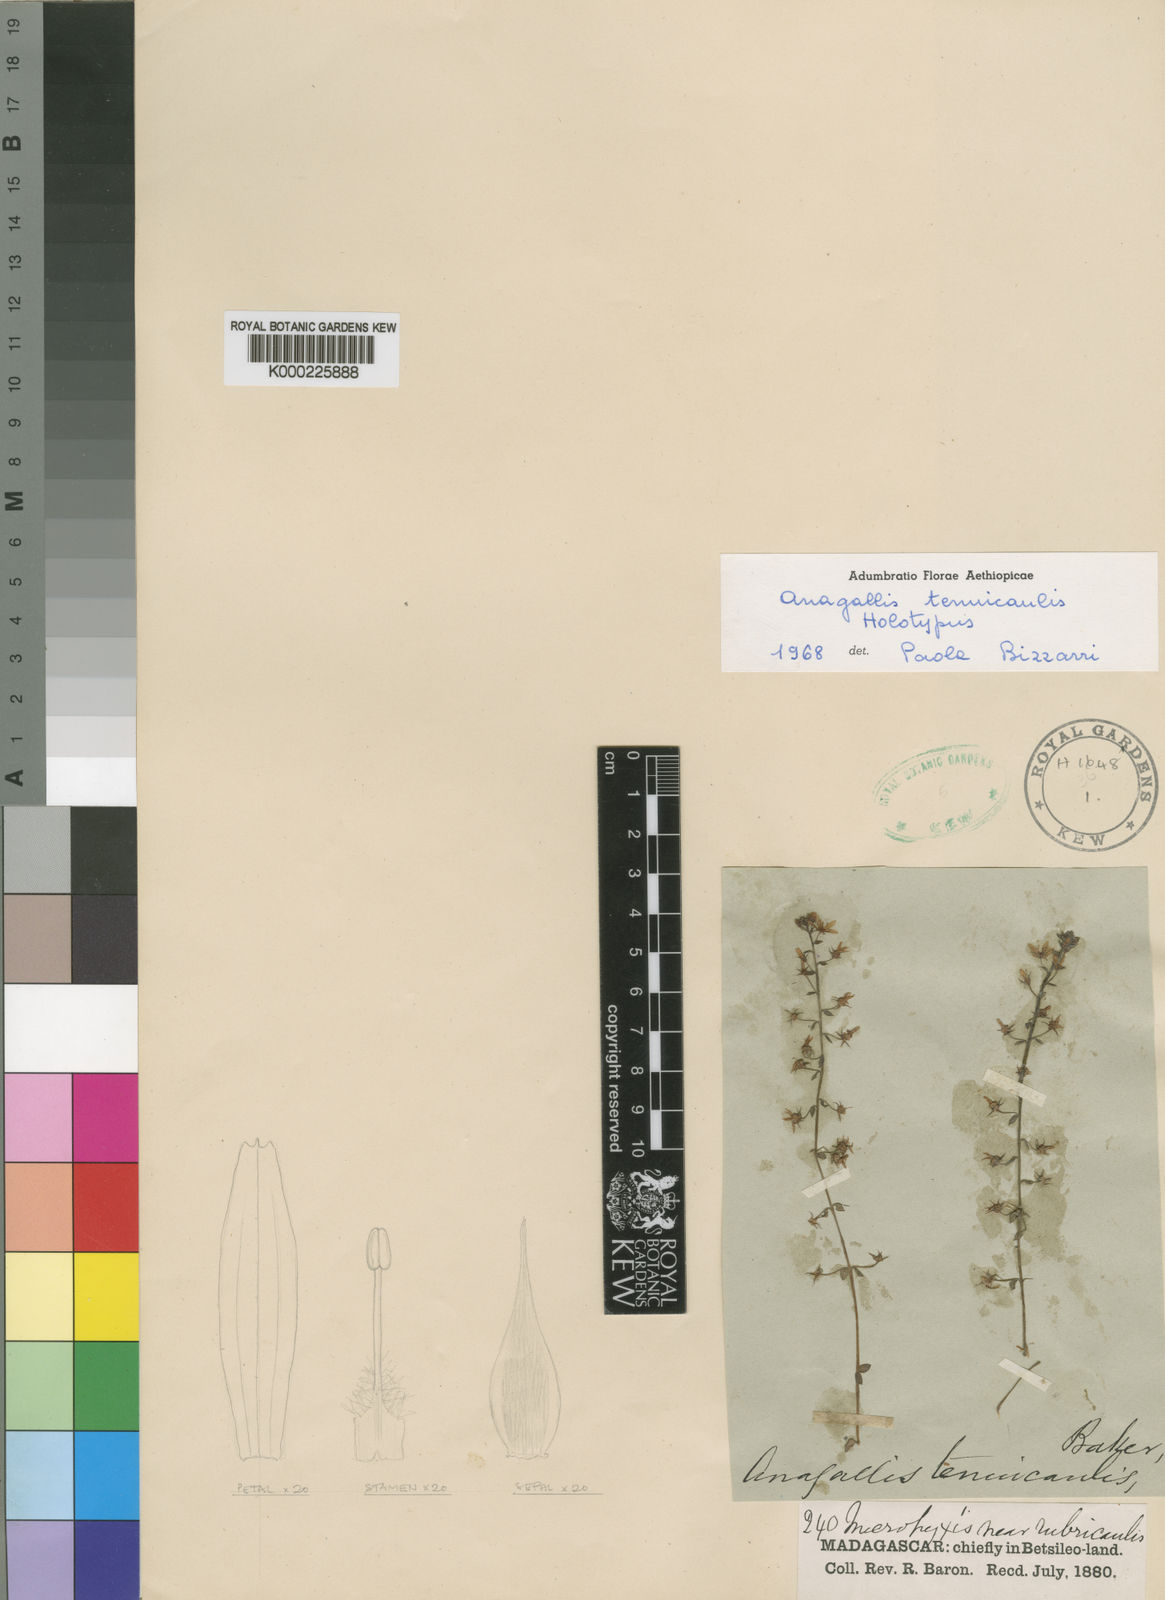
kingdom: Plantae
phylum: Tracheophyta
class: Magnoliopsida
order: Ericales
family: Primulaceae
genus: Lysimachia
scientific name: Lysimachia tenuicaulis
